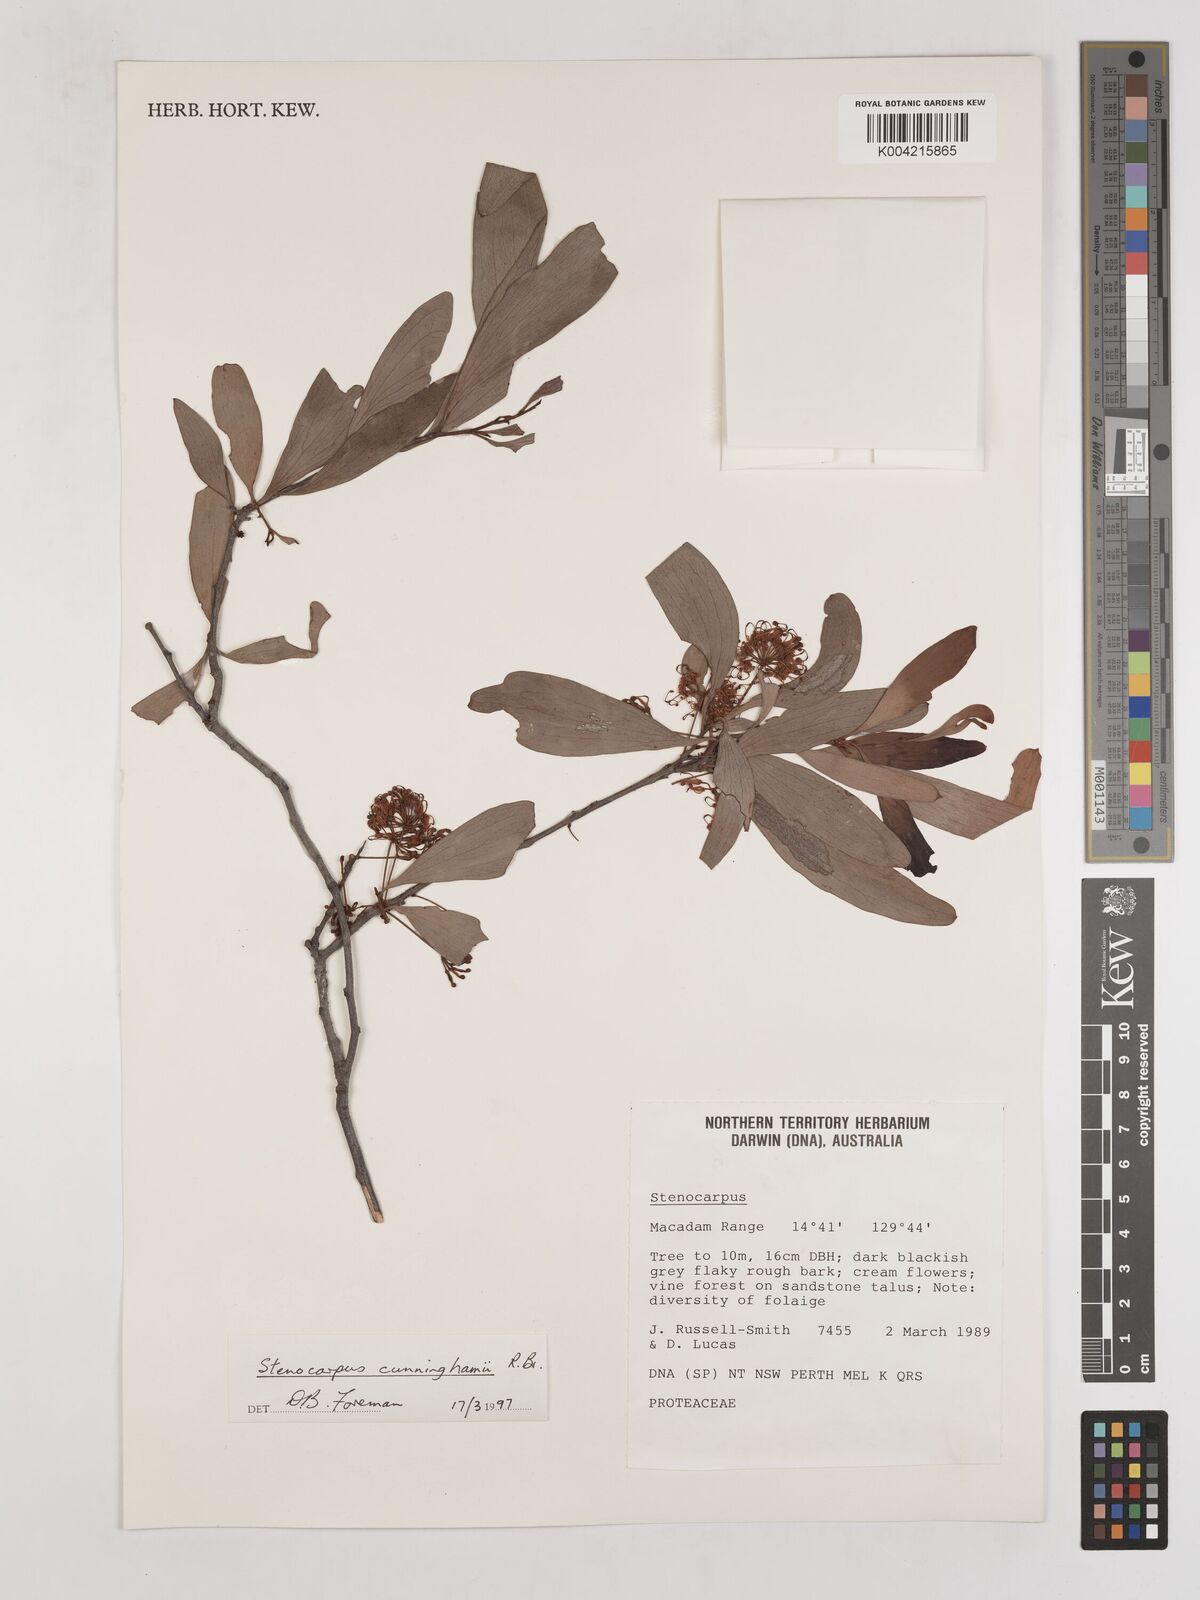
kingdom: Plantae
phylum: Tracheophyta
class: Magnoliopsida
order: Proteales
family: Proteaceae
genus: Stenocarpus
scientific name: Stenocarpus cunninghamii
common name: Little wheelbush
